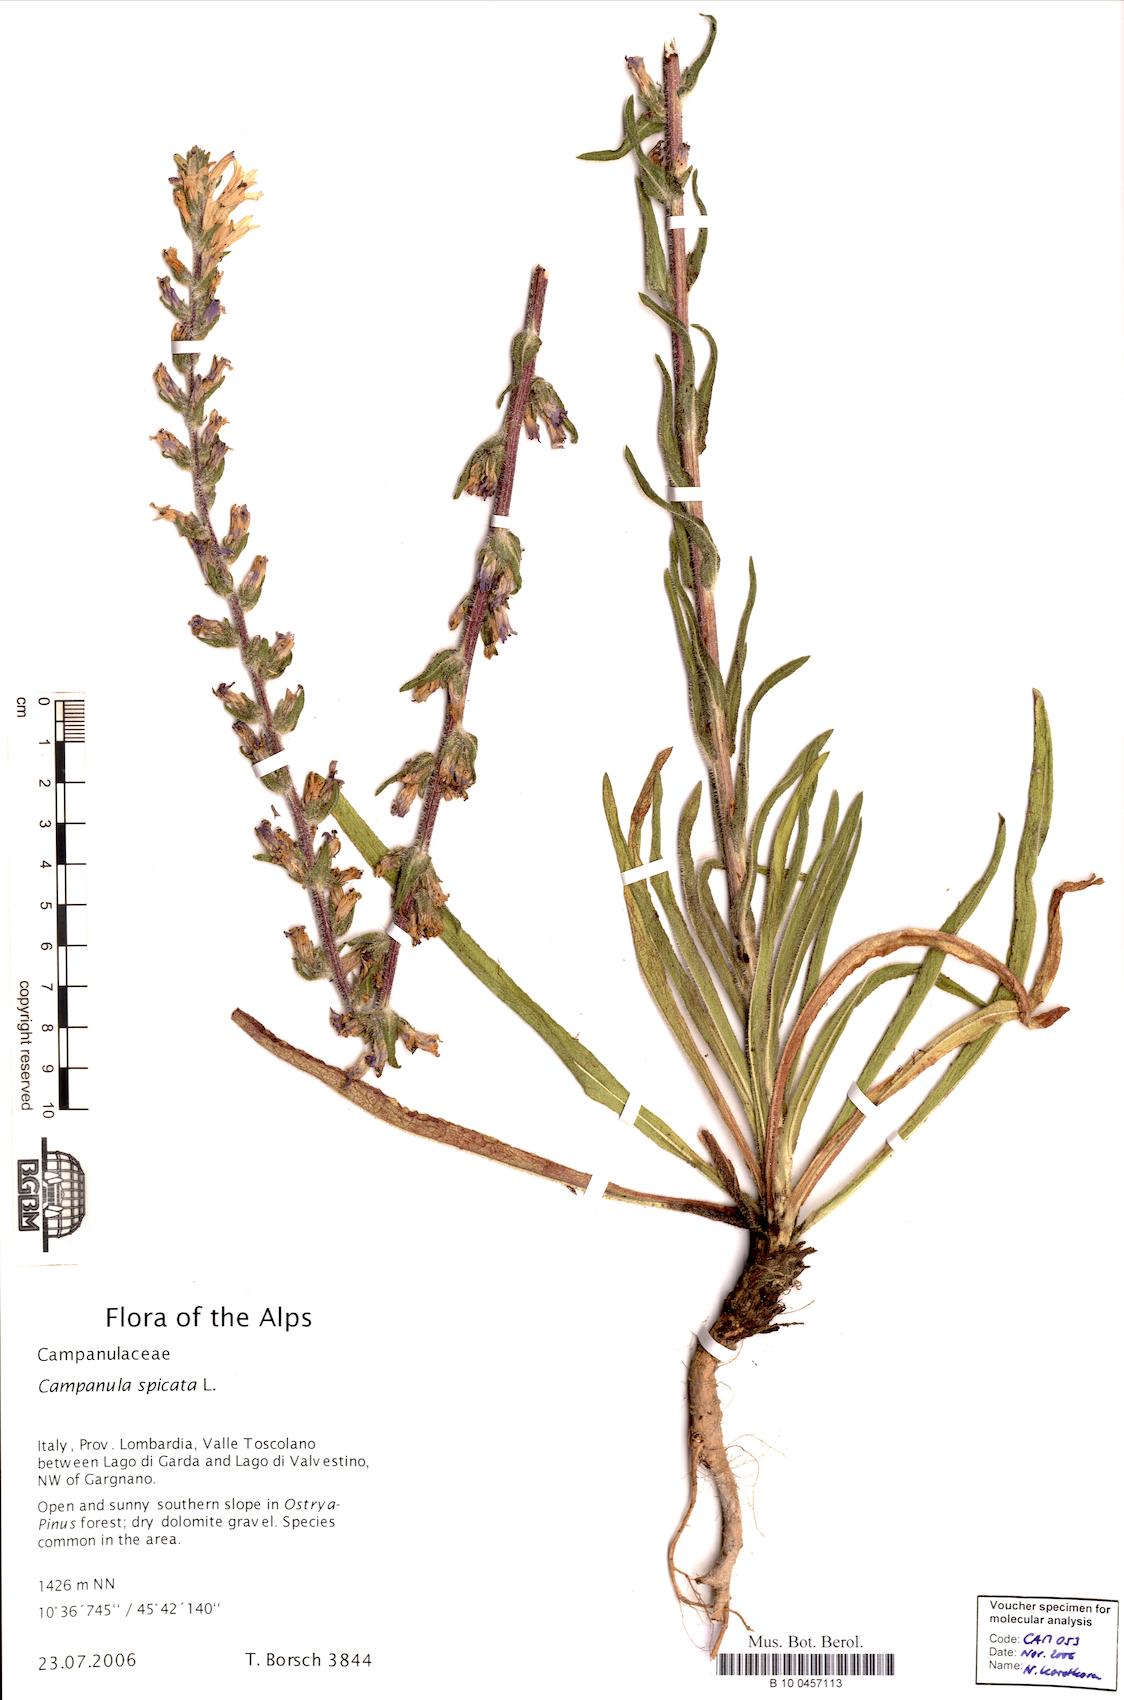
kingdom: Plantae
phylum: Tracheophyta
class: Magnoliopsida
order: Asterales
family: Campanulaceae
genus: Campanula
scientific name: Campanula spicata
